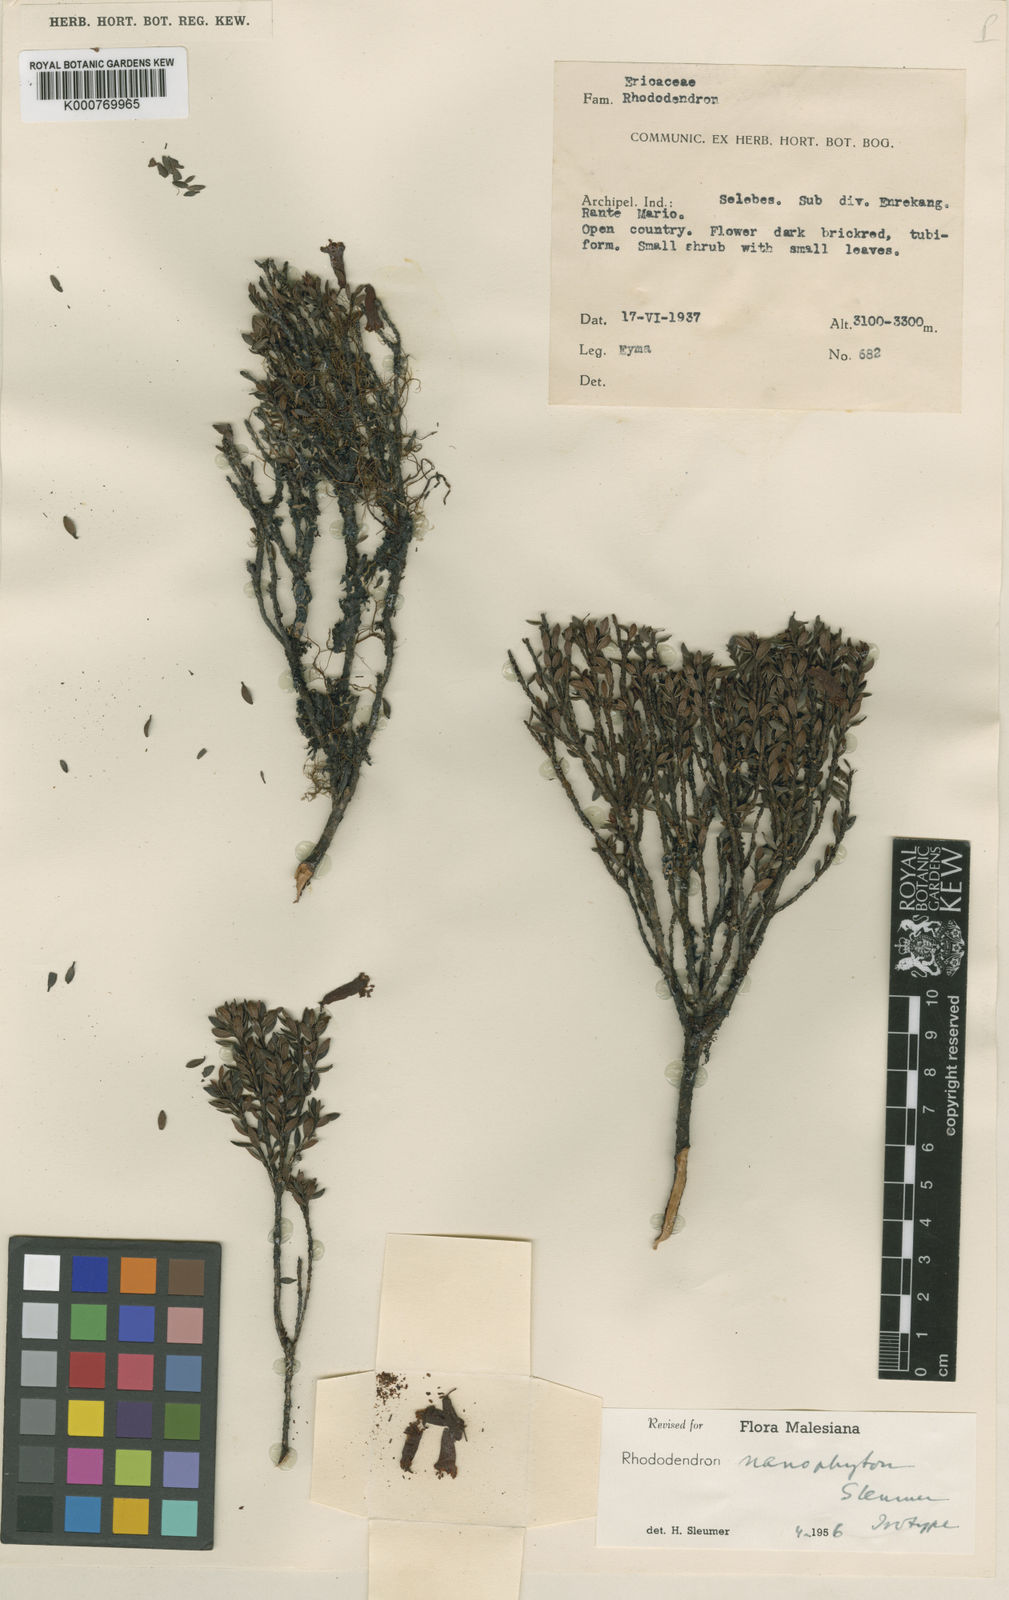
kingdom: Plantae
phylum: Tracheophyta
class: Magnoliopsida
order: Ericales
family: Ericaceae
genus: Rhododendron
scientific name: Rhododendron nanophyton
